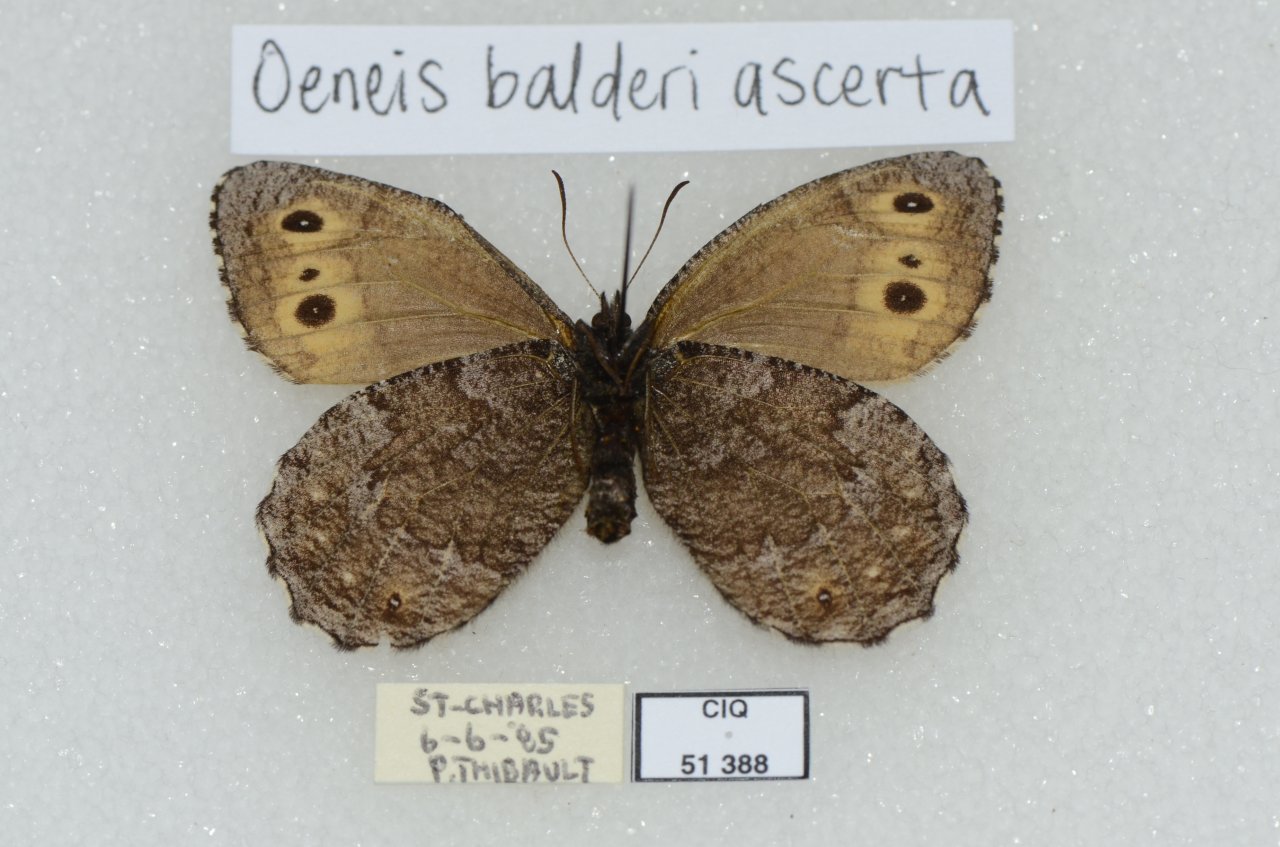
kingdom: Animalia
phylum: Arthropoda
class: Insecta
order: Lepidoptera
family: Nymphalidae
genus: Oeneis
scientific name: Oeneis jutta
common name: Jutta Arctic
